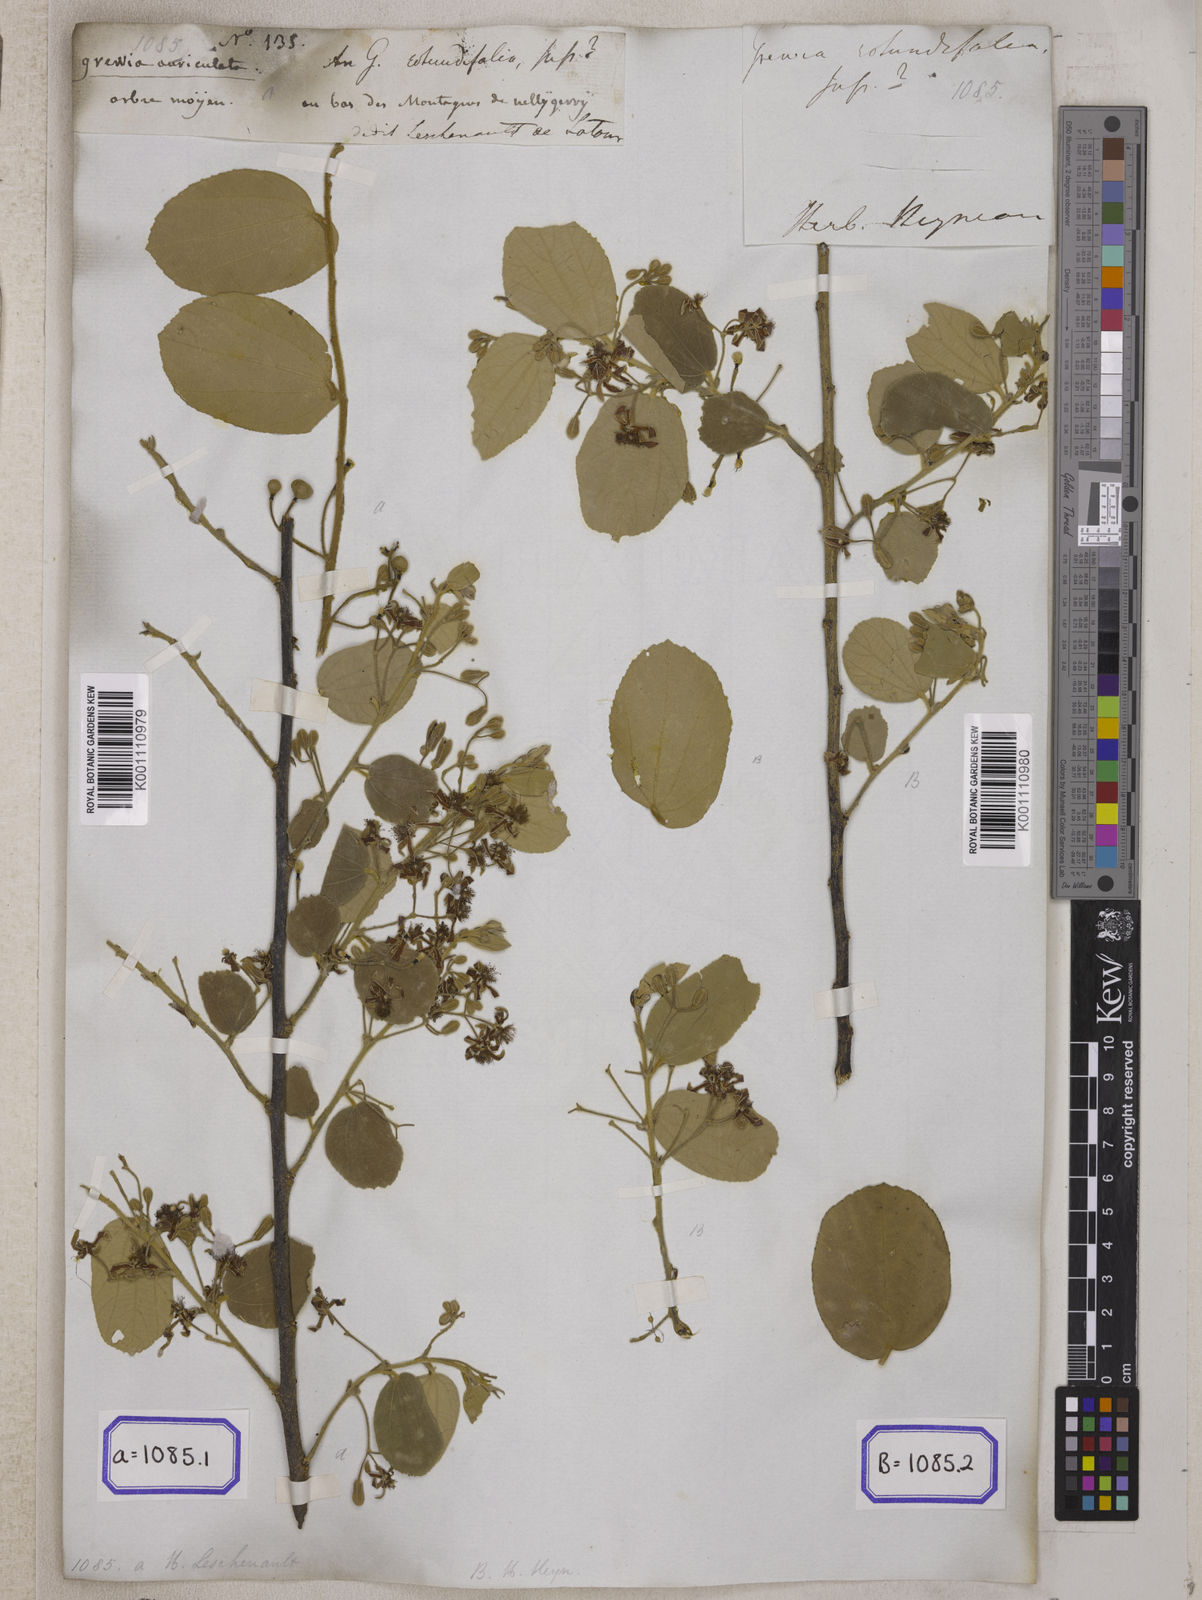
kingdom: Plantae
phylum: Tracheophyta
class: Magnoliopsida
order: Malvales
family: Malvaceae
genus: Grewia
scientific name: Grewia orbiculata
